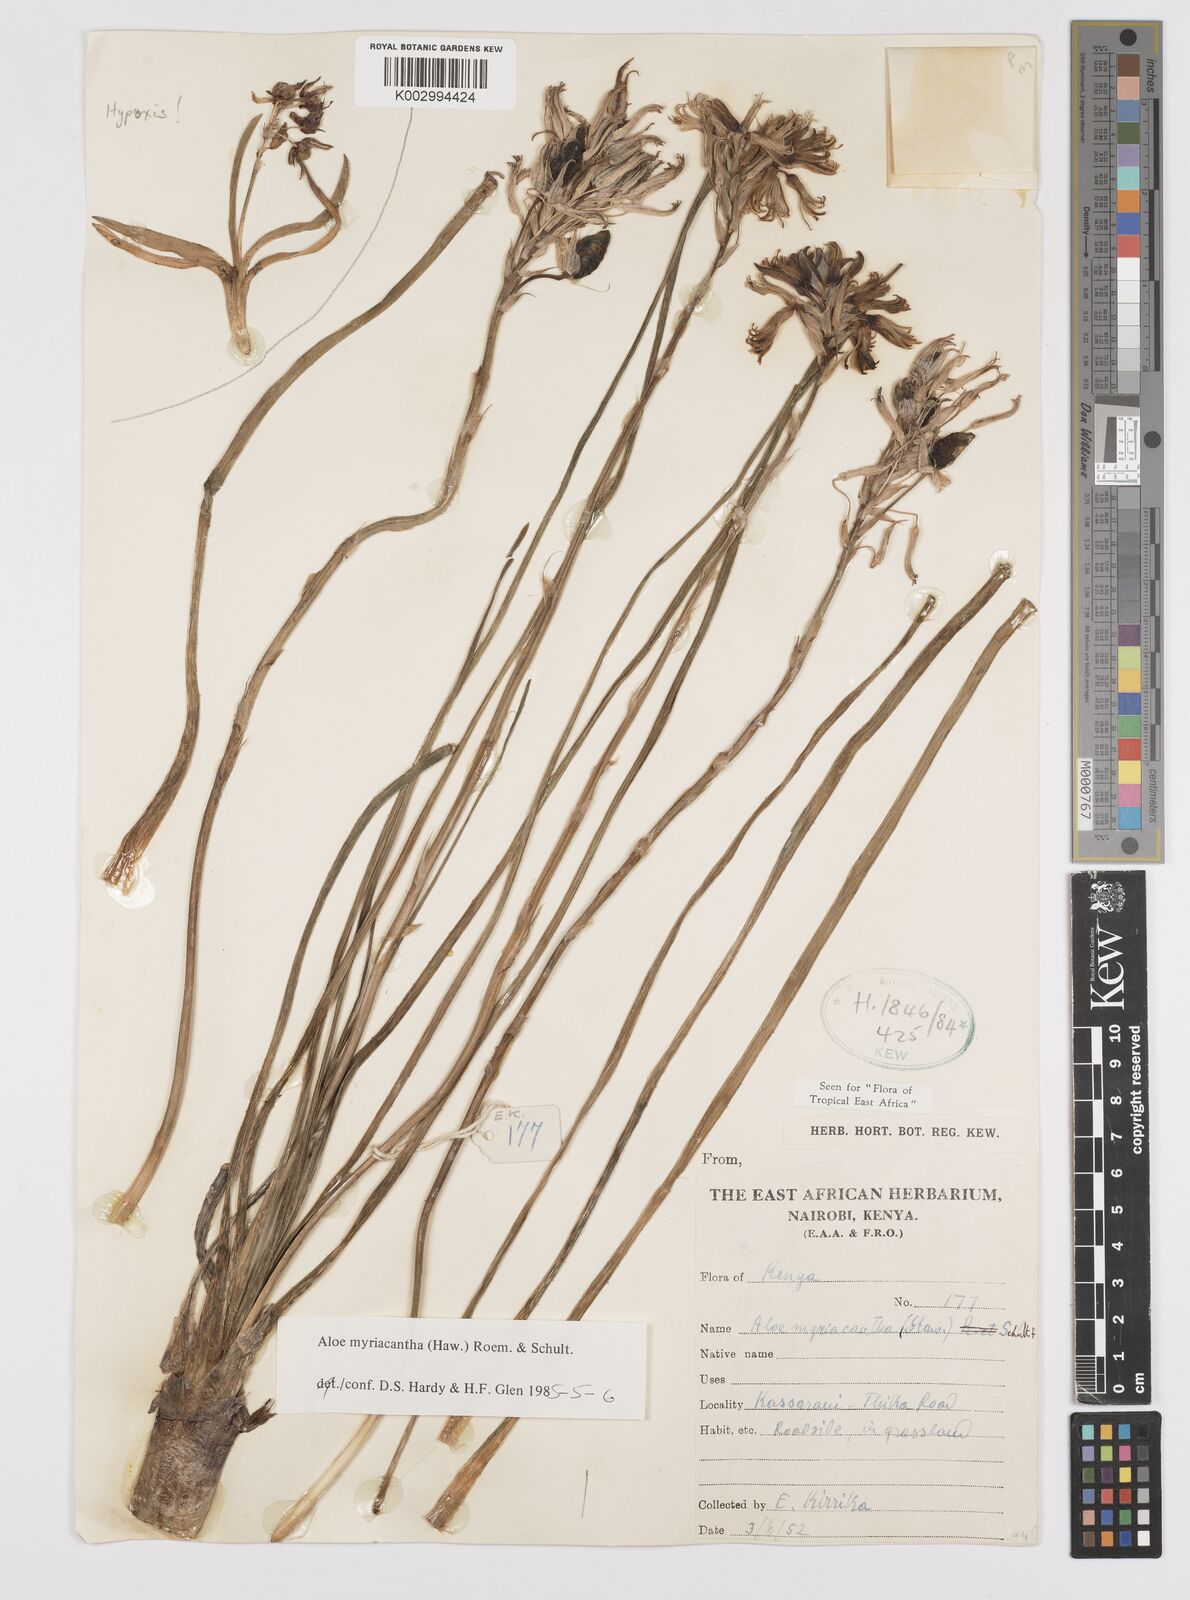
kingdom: Plantae
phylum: Tracheophyta
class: Liliopsida
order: Asparagales
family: Asphodelaceae
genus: Aloe
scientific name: Aloe myriacantha
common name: Grass aloe
